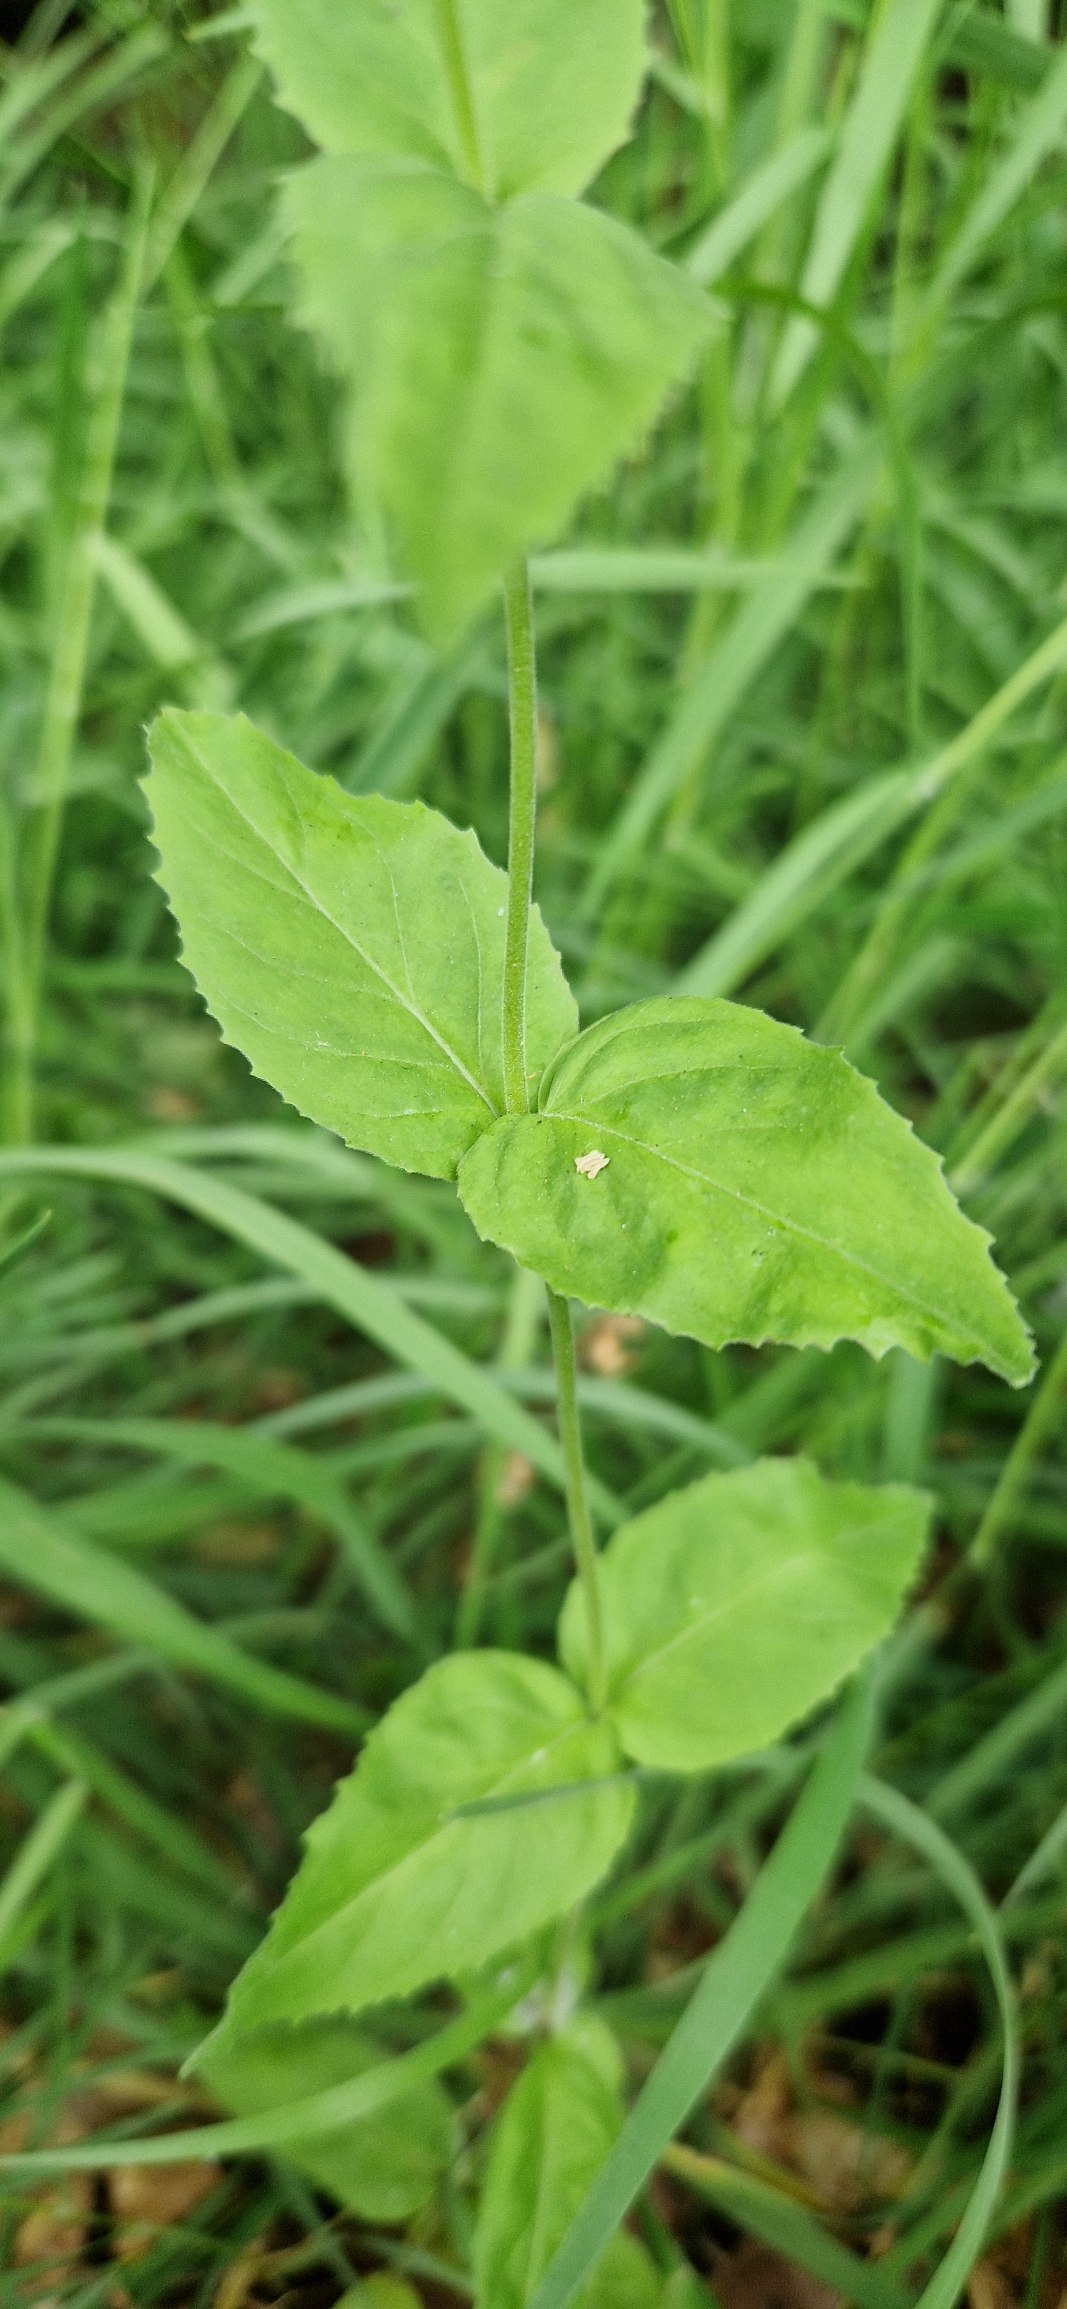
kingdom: Plantae
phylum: Tracheophyta
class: Magnoliopsida
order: Myrtales
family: Onagraceae
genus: Epilobium
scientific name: Epilobium montanum
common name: Glat dueurt
